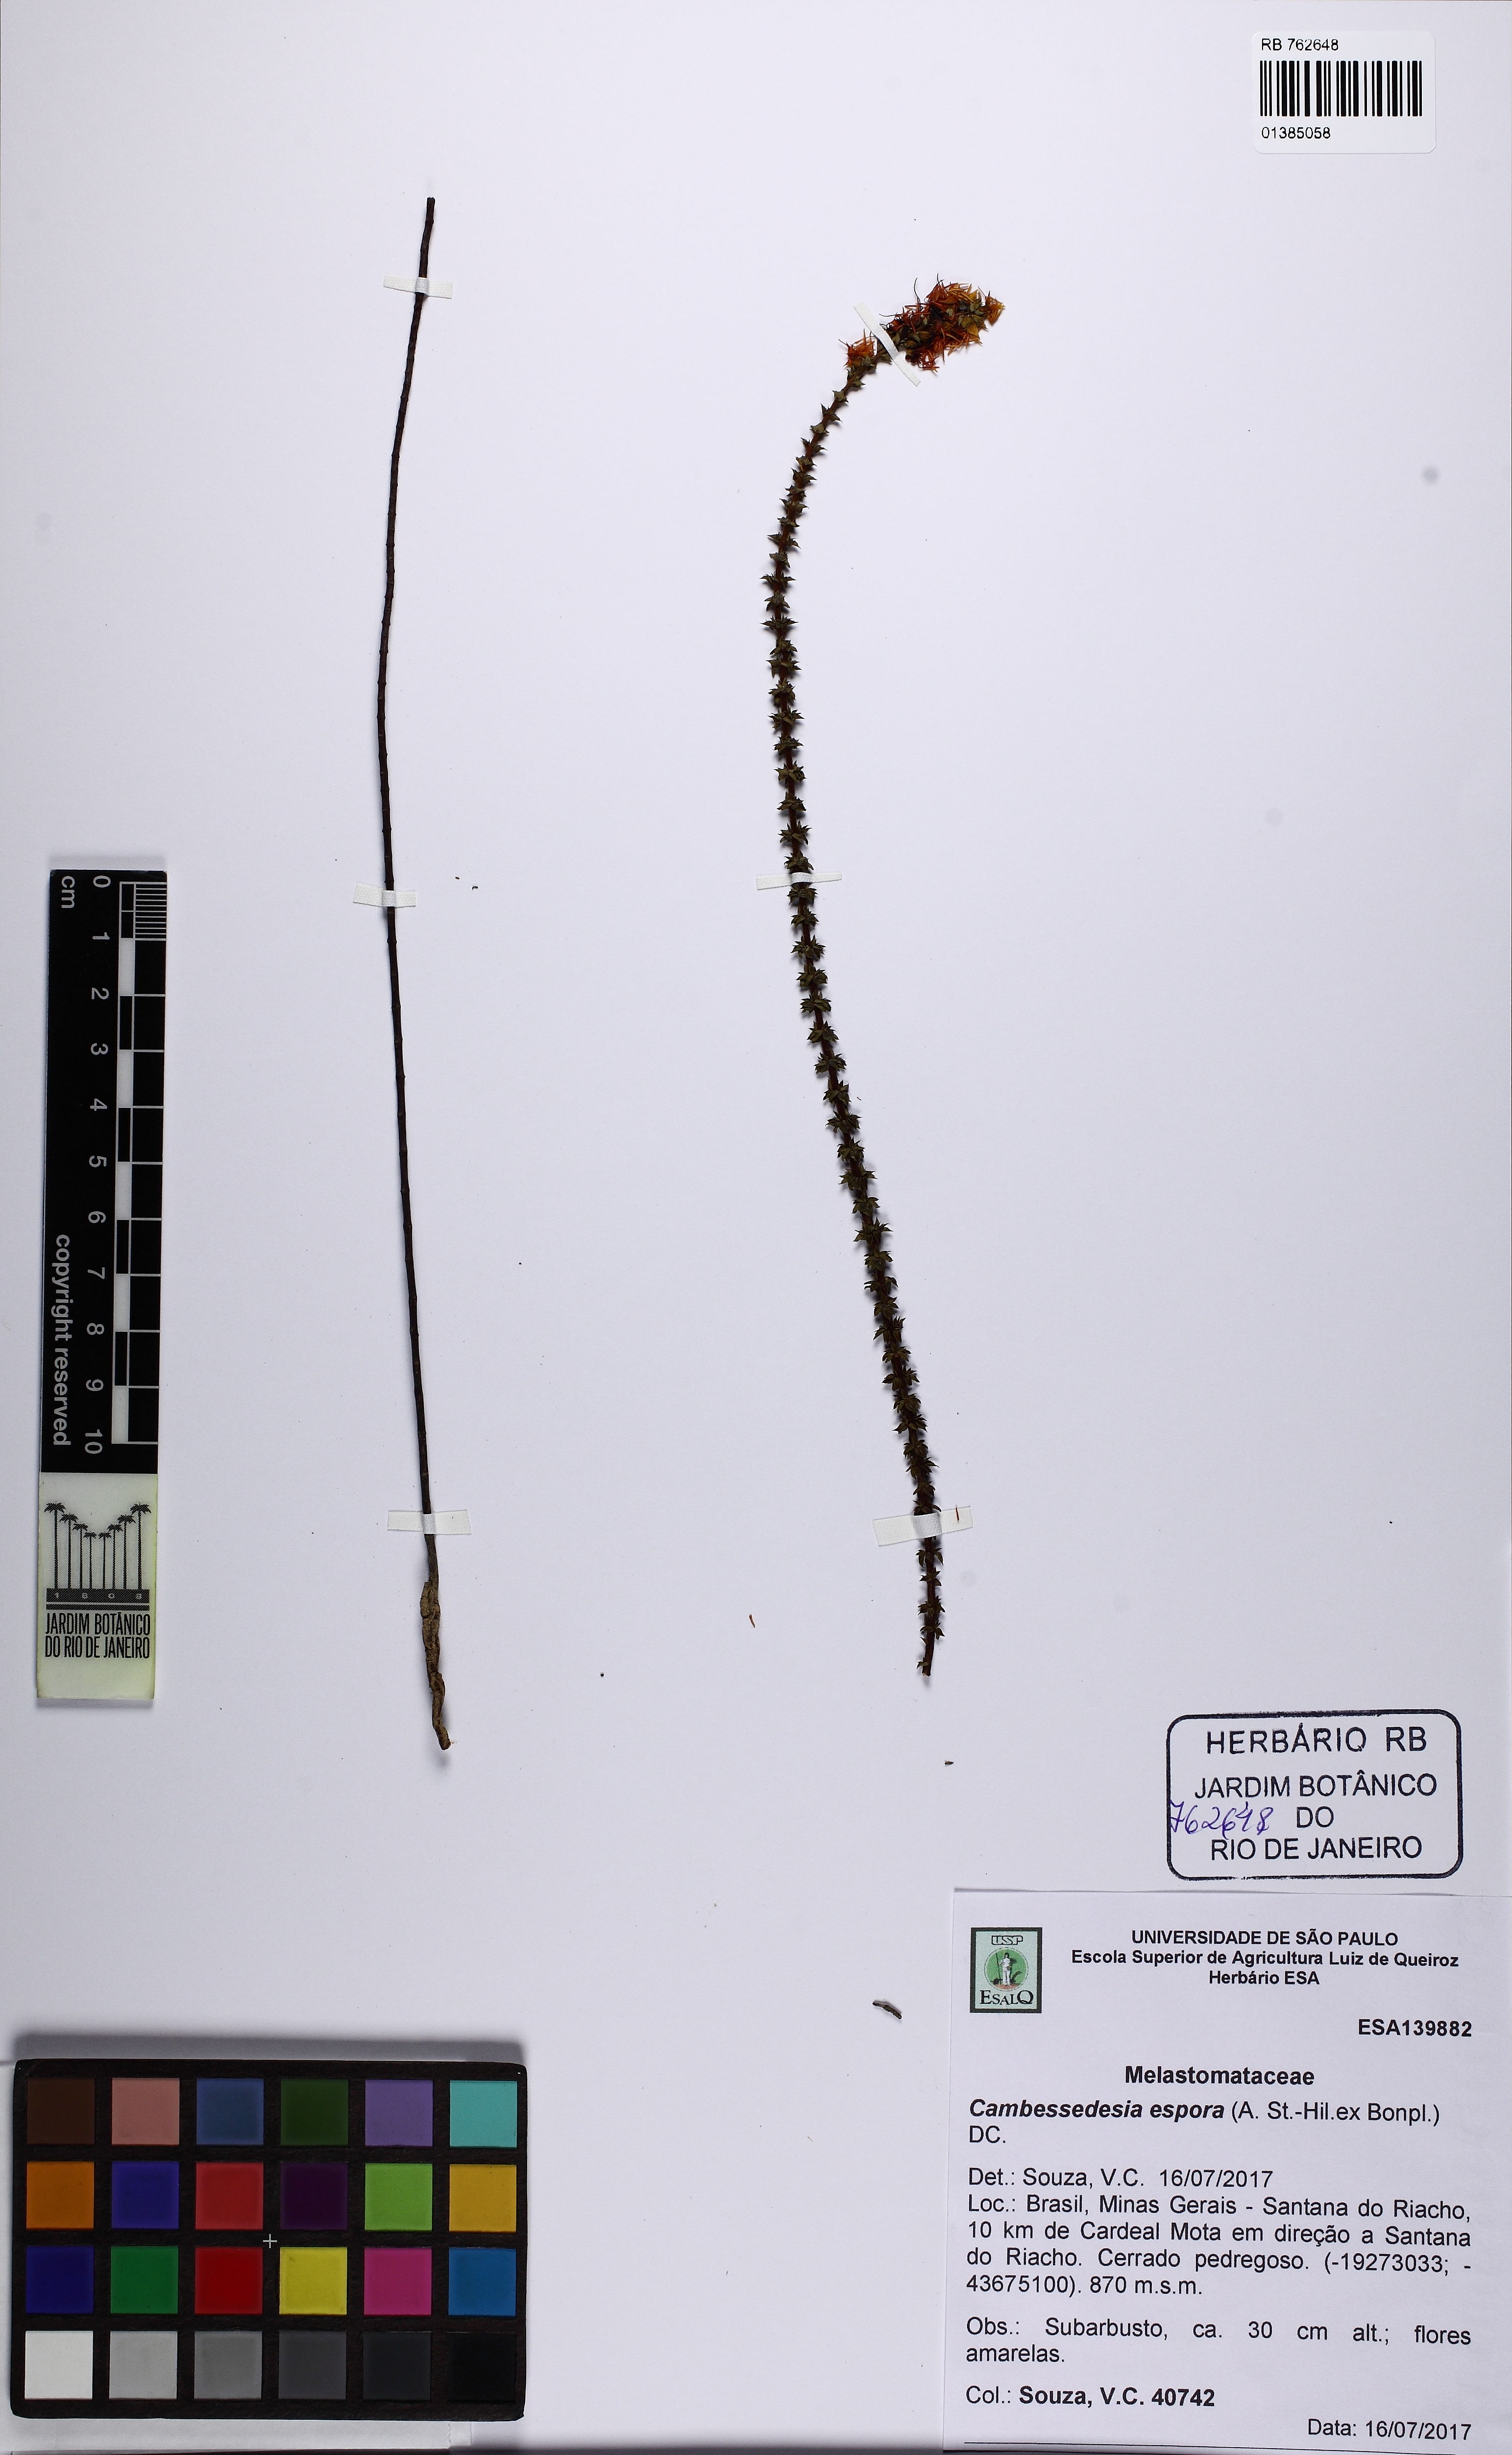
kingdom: Plantae
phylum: Tracheophyta
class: Magnoliopsida
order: Myrtales
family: Melastomataceae
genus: Cambessedesia
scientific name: Cambessedesia espora
